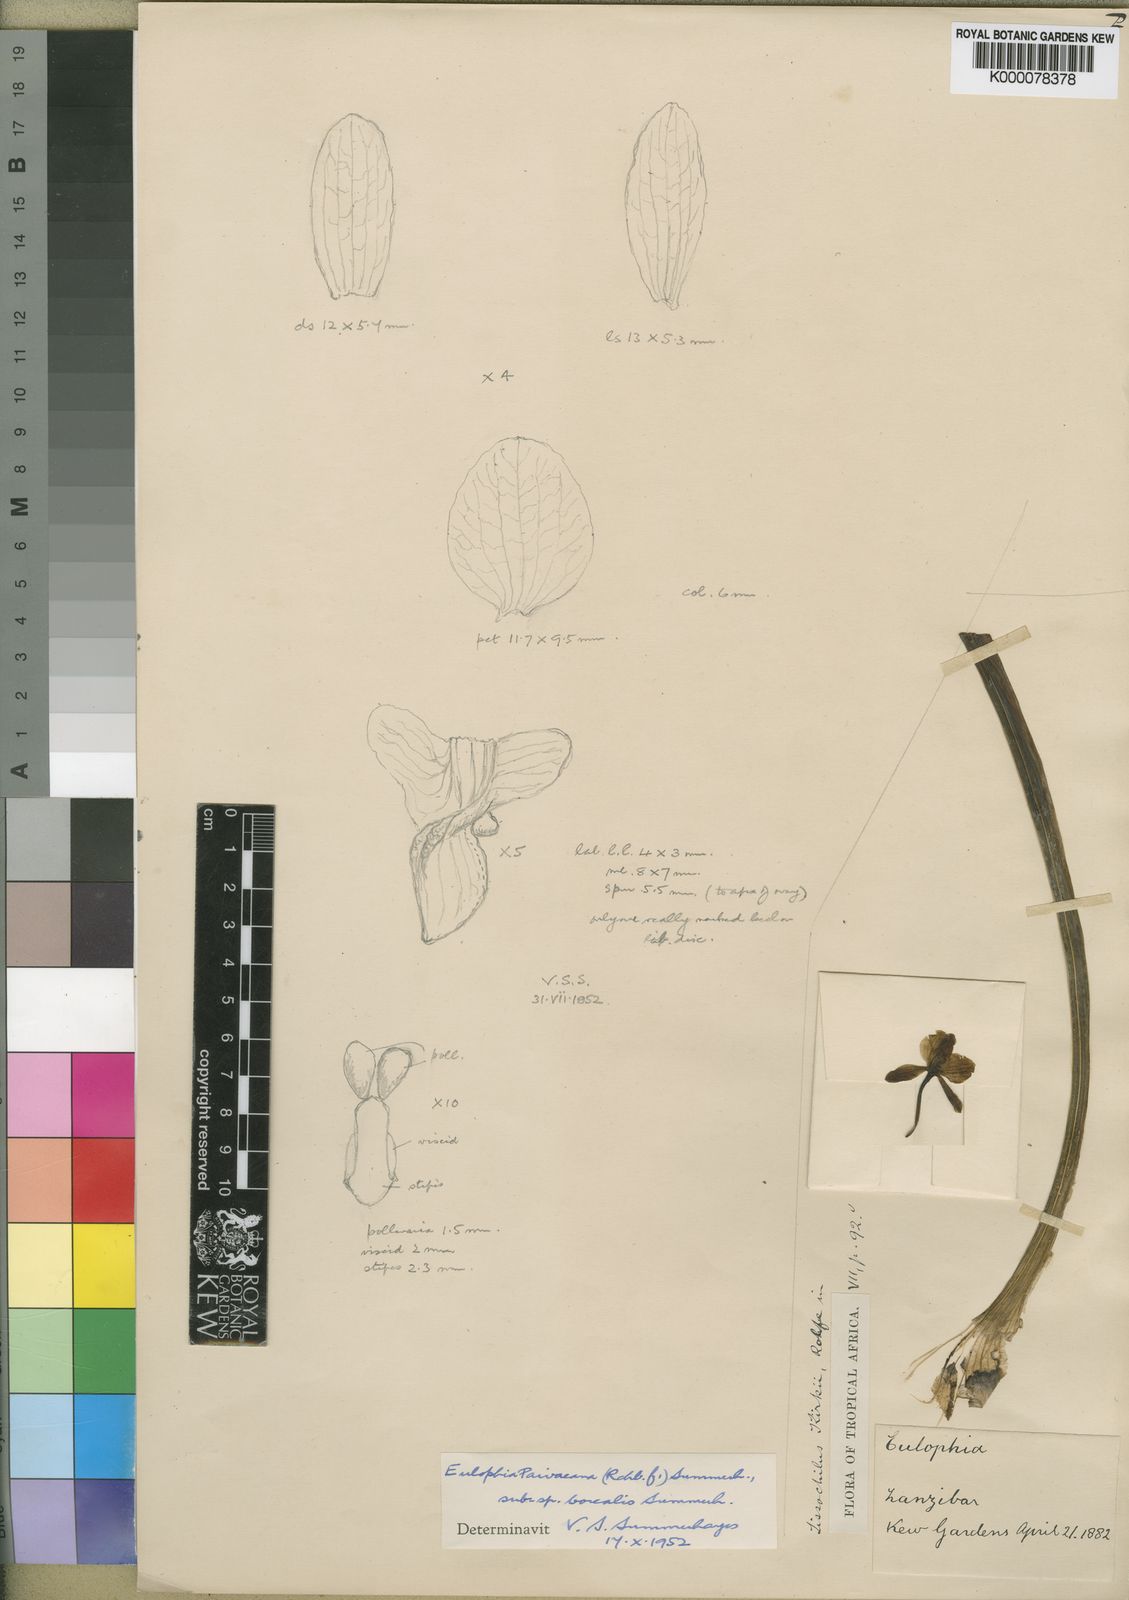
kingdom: Plantae
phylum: Tracheophyta
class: Liliopsida
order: Asparagales
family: Orchidaceae
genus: Eulophia
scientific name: Eulophia streptopetala
